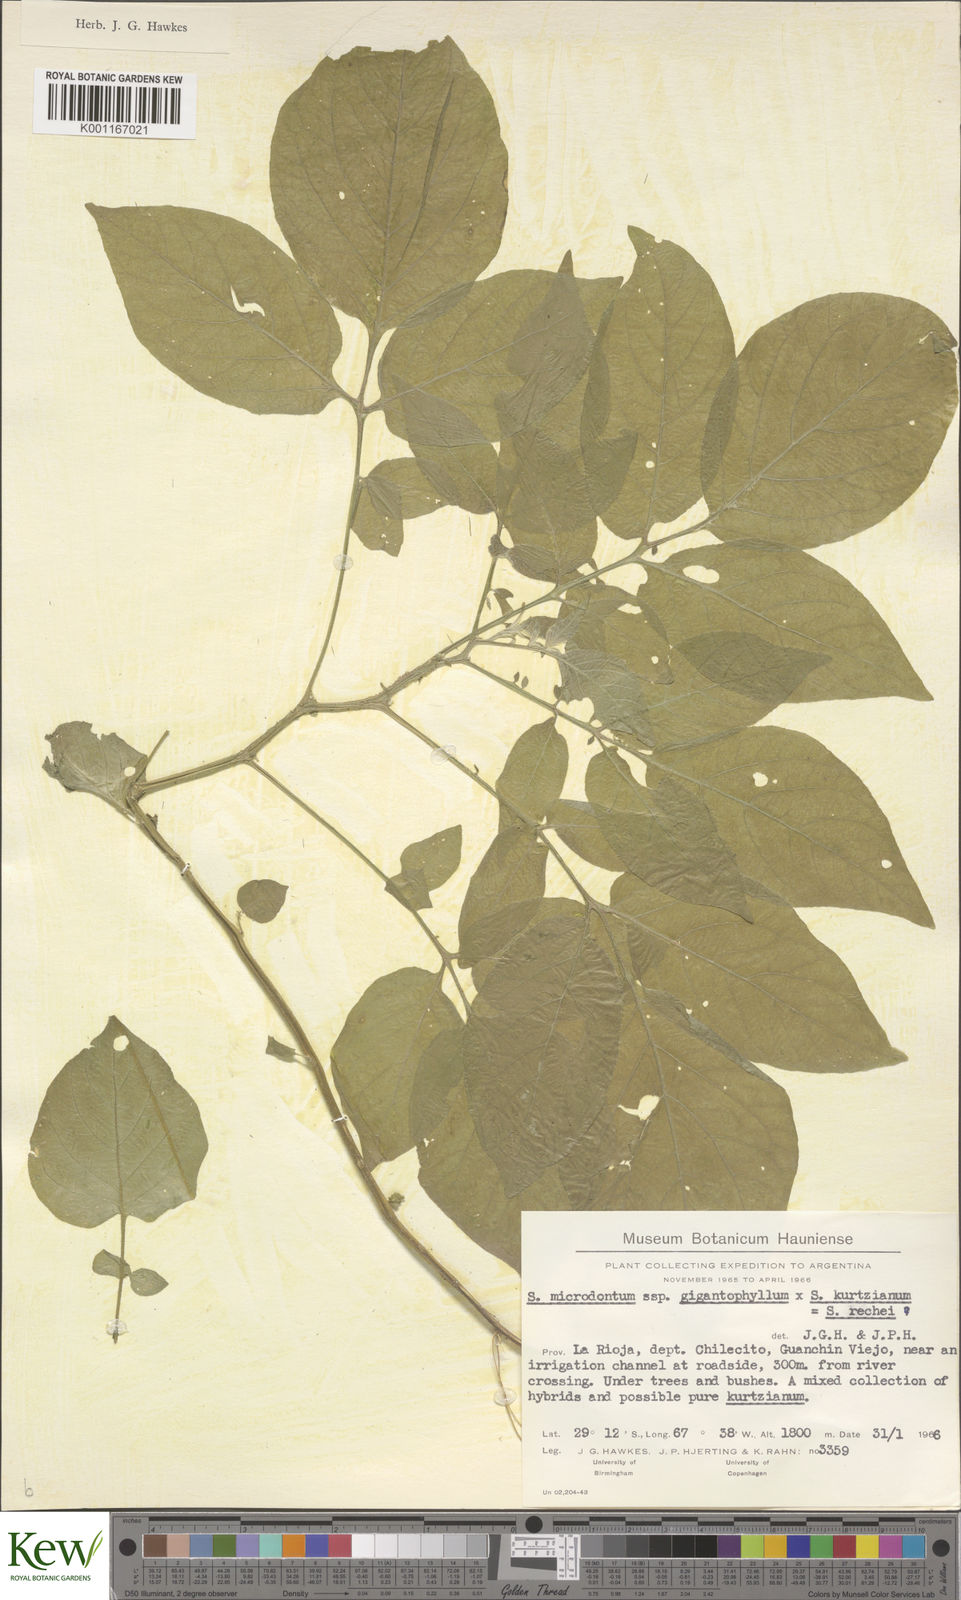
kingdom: Plantae
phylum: Tracheophyta
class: Magnoliopsida
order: Solanales
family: Solanaceae
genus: Solanum
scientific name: Solanum rechei
